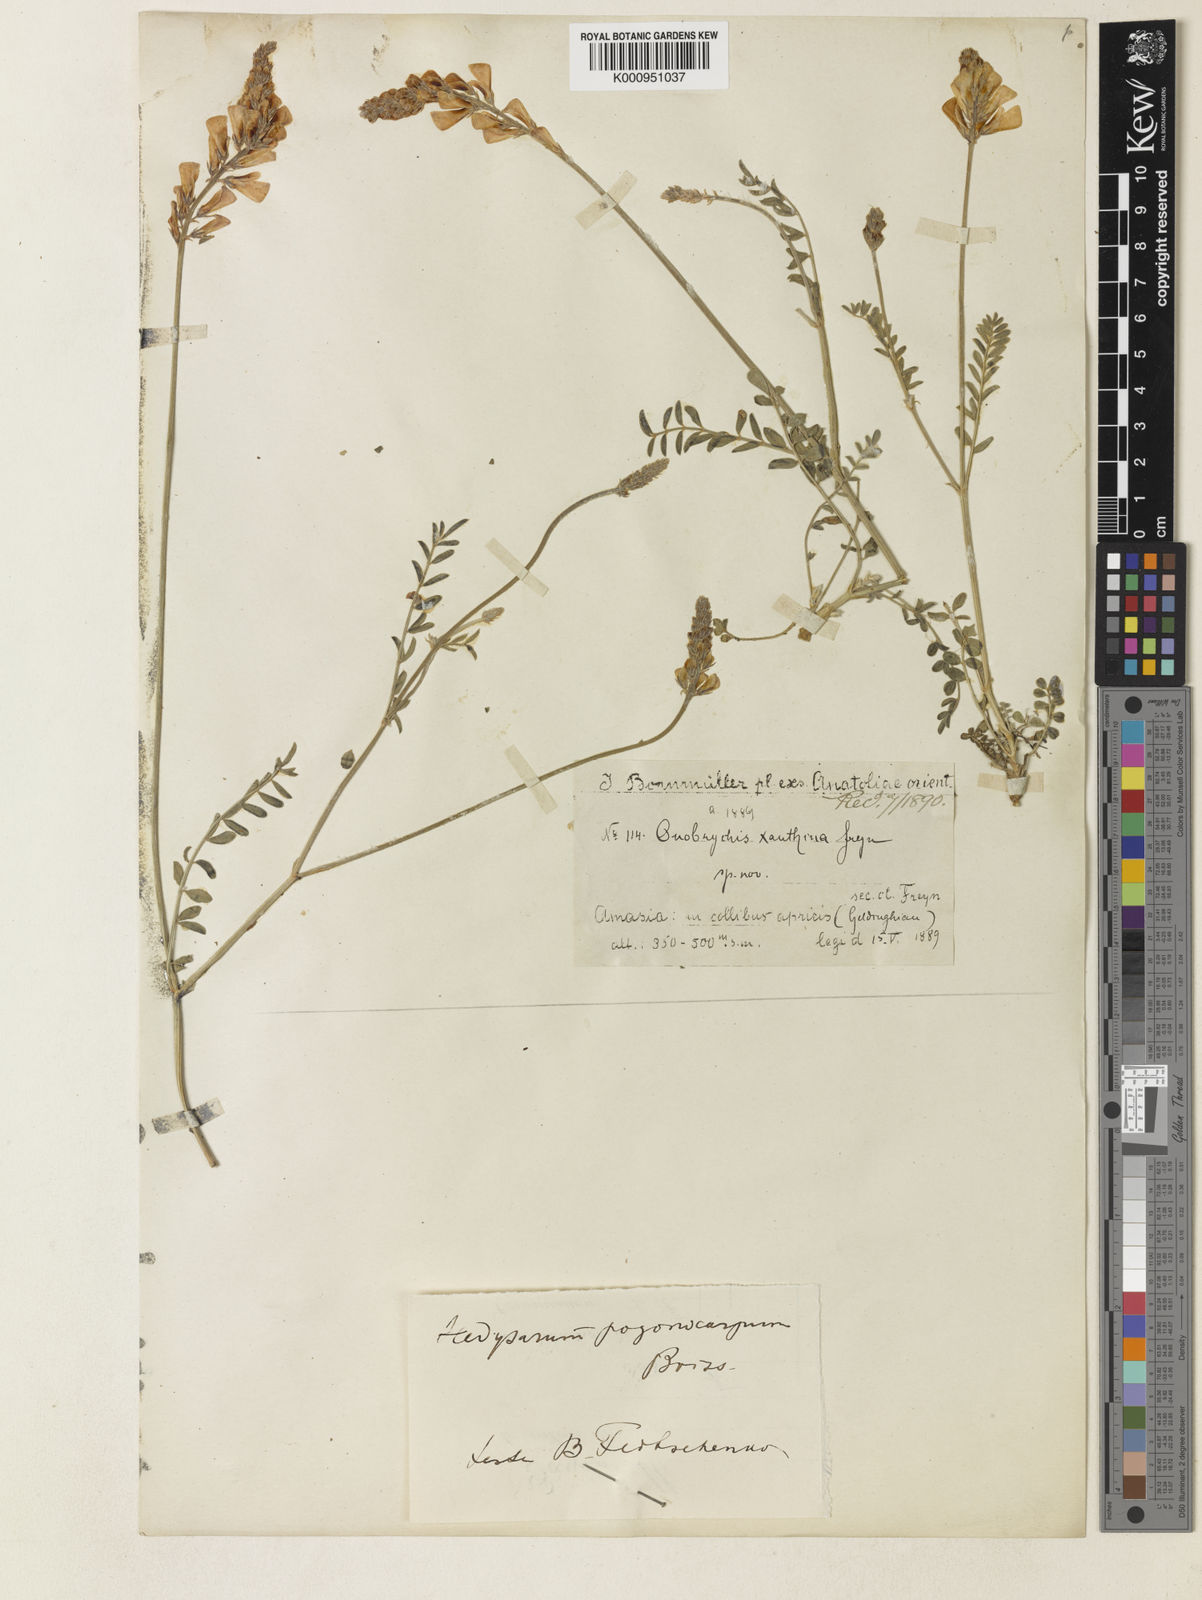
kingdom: Plantae
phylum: Tracheophyta
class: Magnoliopsida
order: Fabales
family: Fabaceae
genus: Hedysarum
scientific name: Hedysarum pogonocarpum
